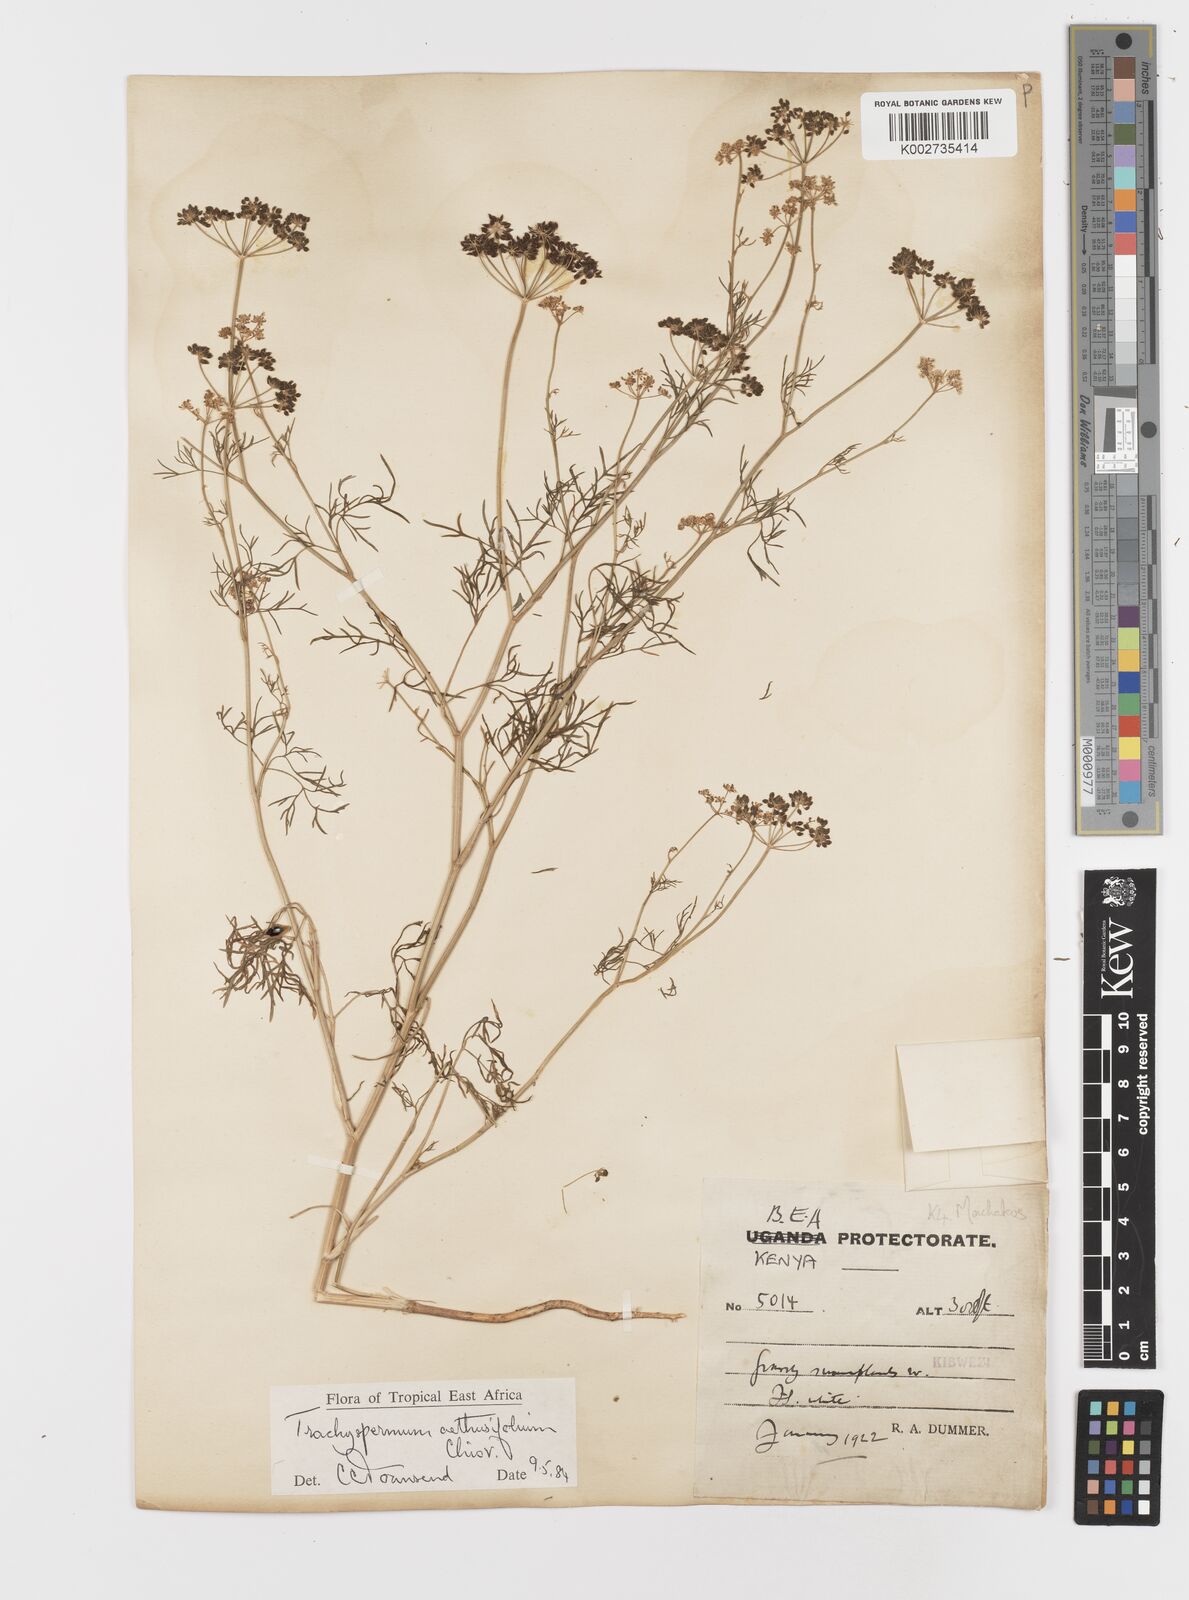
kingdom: Plantae
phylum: Tracheophyta
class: Magnoliopsida
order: Apiales
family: Apiaceae
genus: Trachyspermum
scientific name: Trachyspermum pimpinelloides
